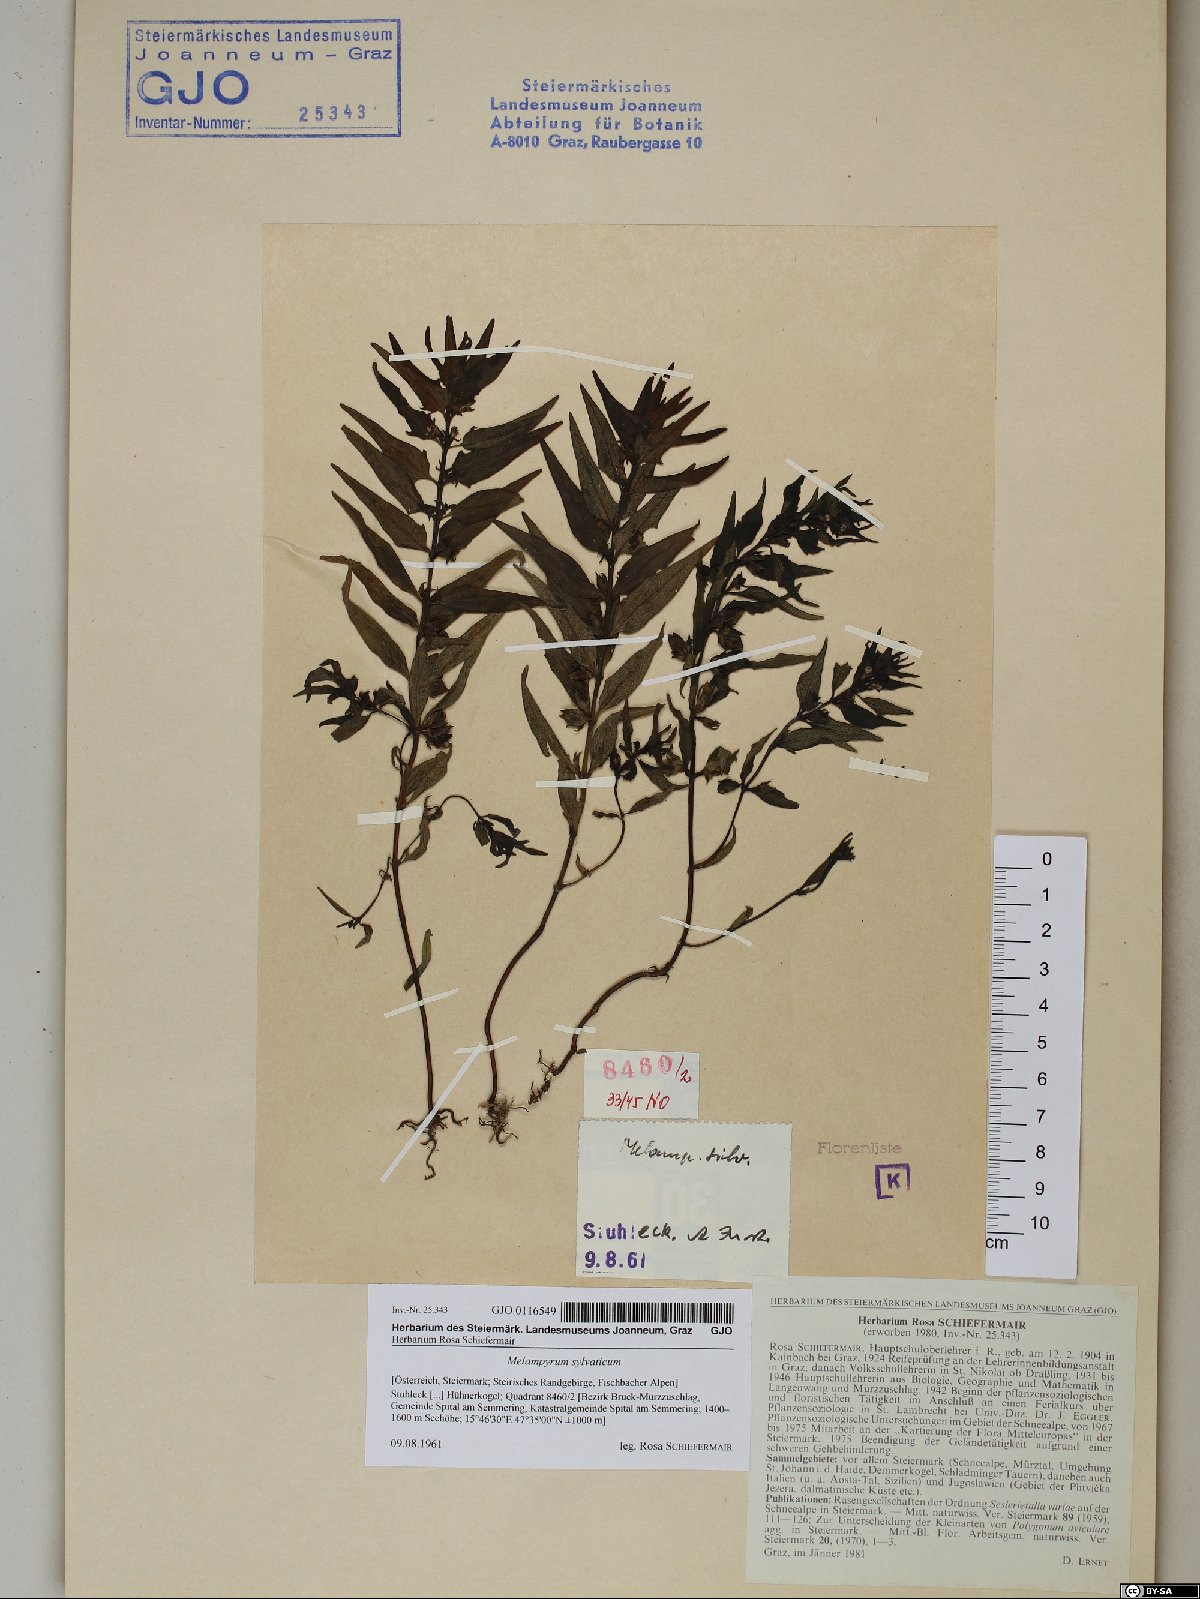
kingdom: Plantae
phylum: Tracheophyta
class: Magnoliopsida
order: Lamiales
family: Orobanchaceae
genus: Melampyrum
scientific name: Melampyrum sylvaticum
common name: Small cow-wheat
